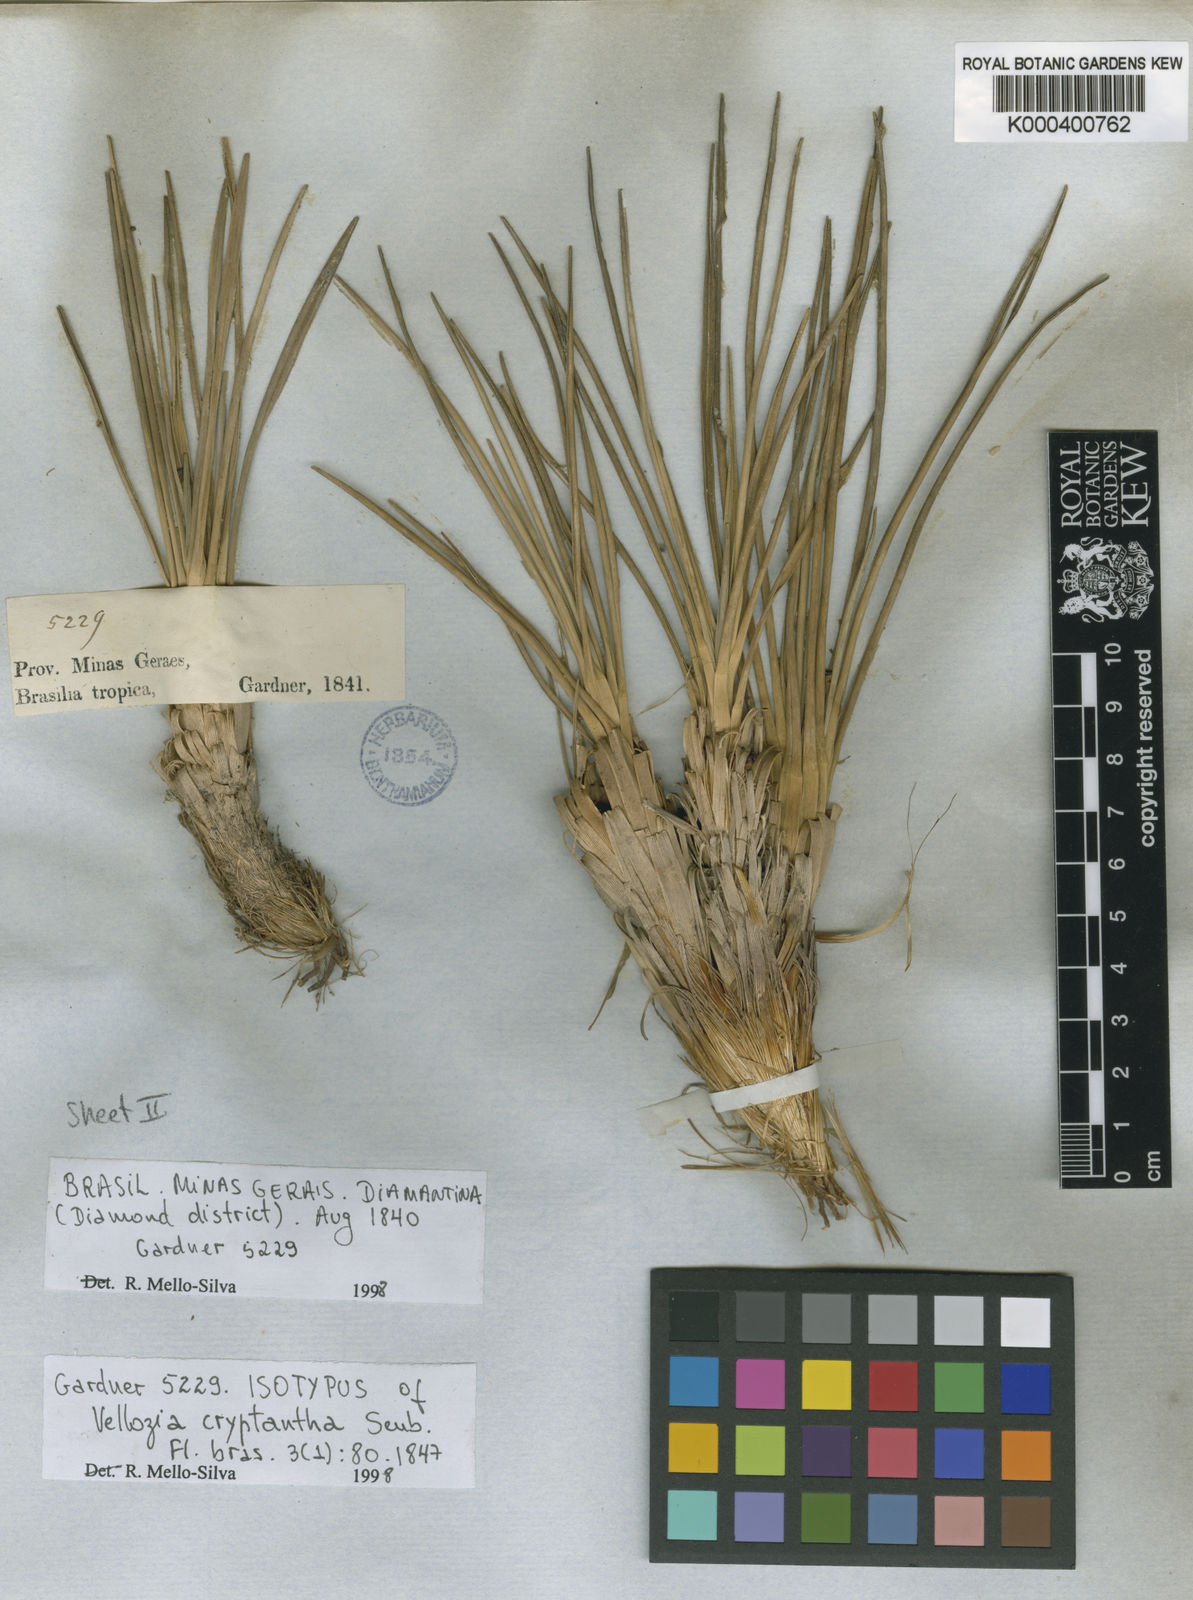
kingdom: Plantae
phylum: Tracheophyta
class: Liliopsida
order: Pandanales
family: Velloziaceae
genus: Vellozia
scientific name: Vellozia cryptantha
